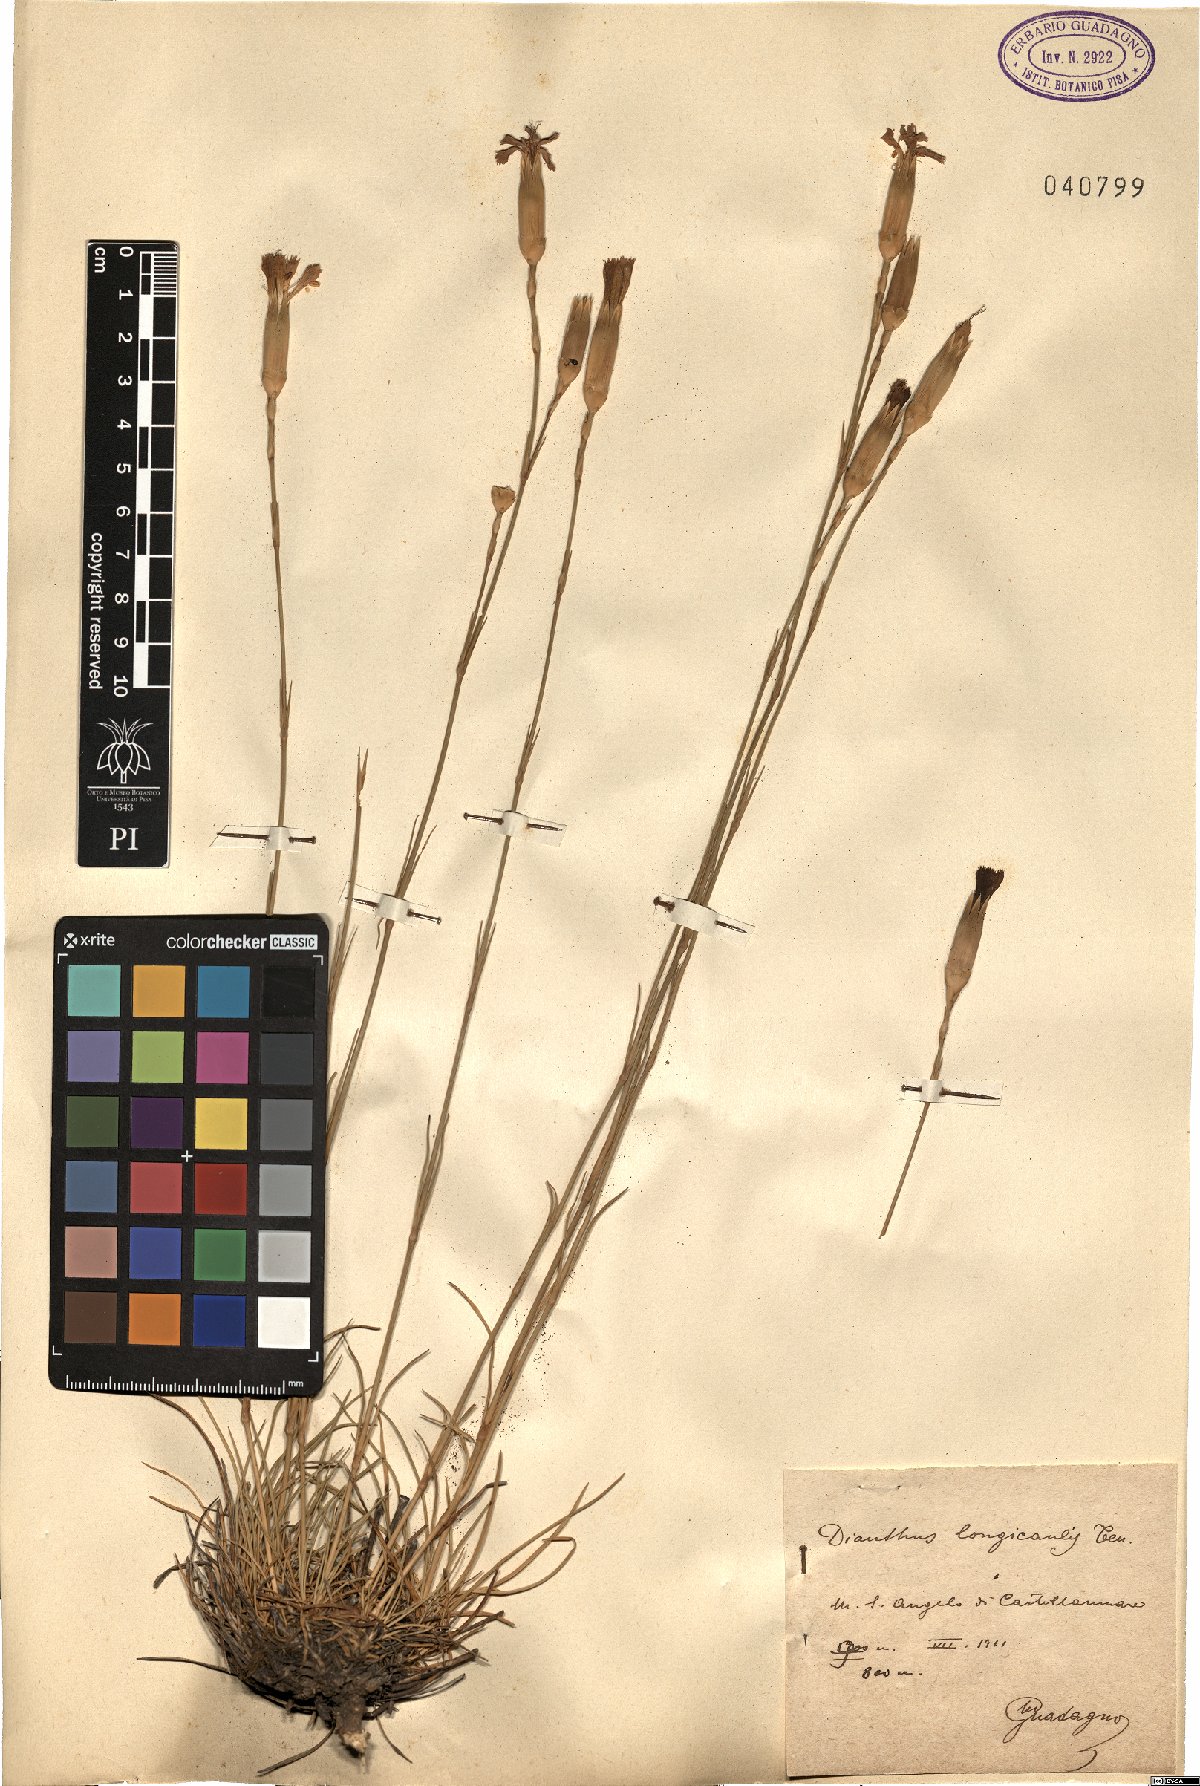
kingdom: Plantae
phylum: Tracheophyta
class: Magnoliopsida
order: Caryophyllales
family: Caryophyllaceae
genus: Dianthus
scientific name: Dianthus virgineus
